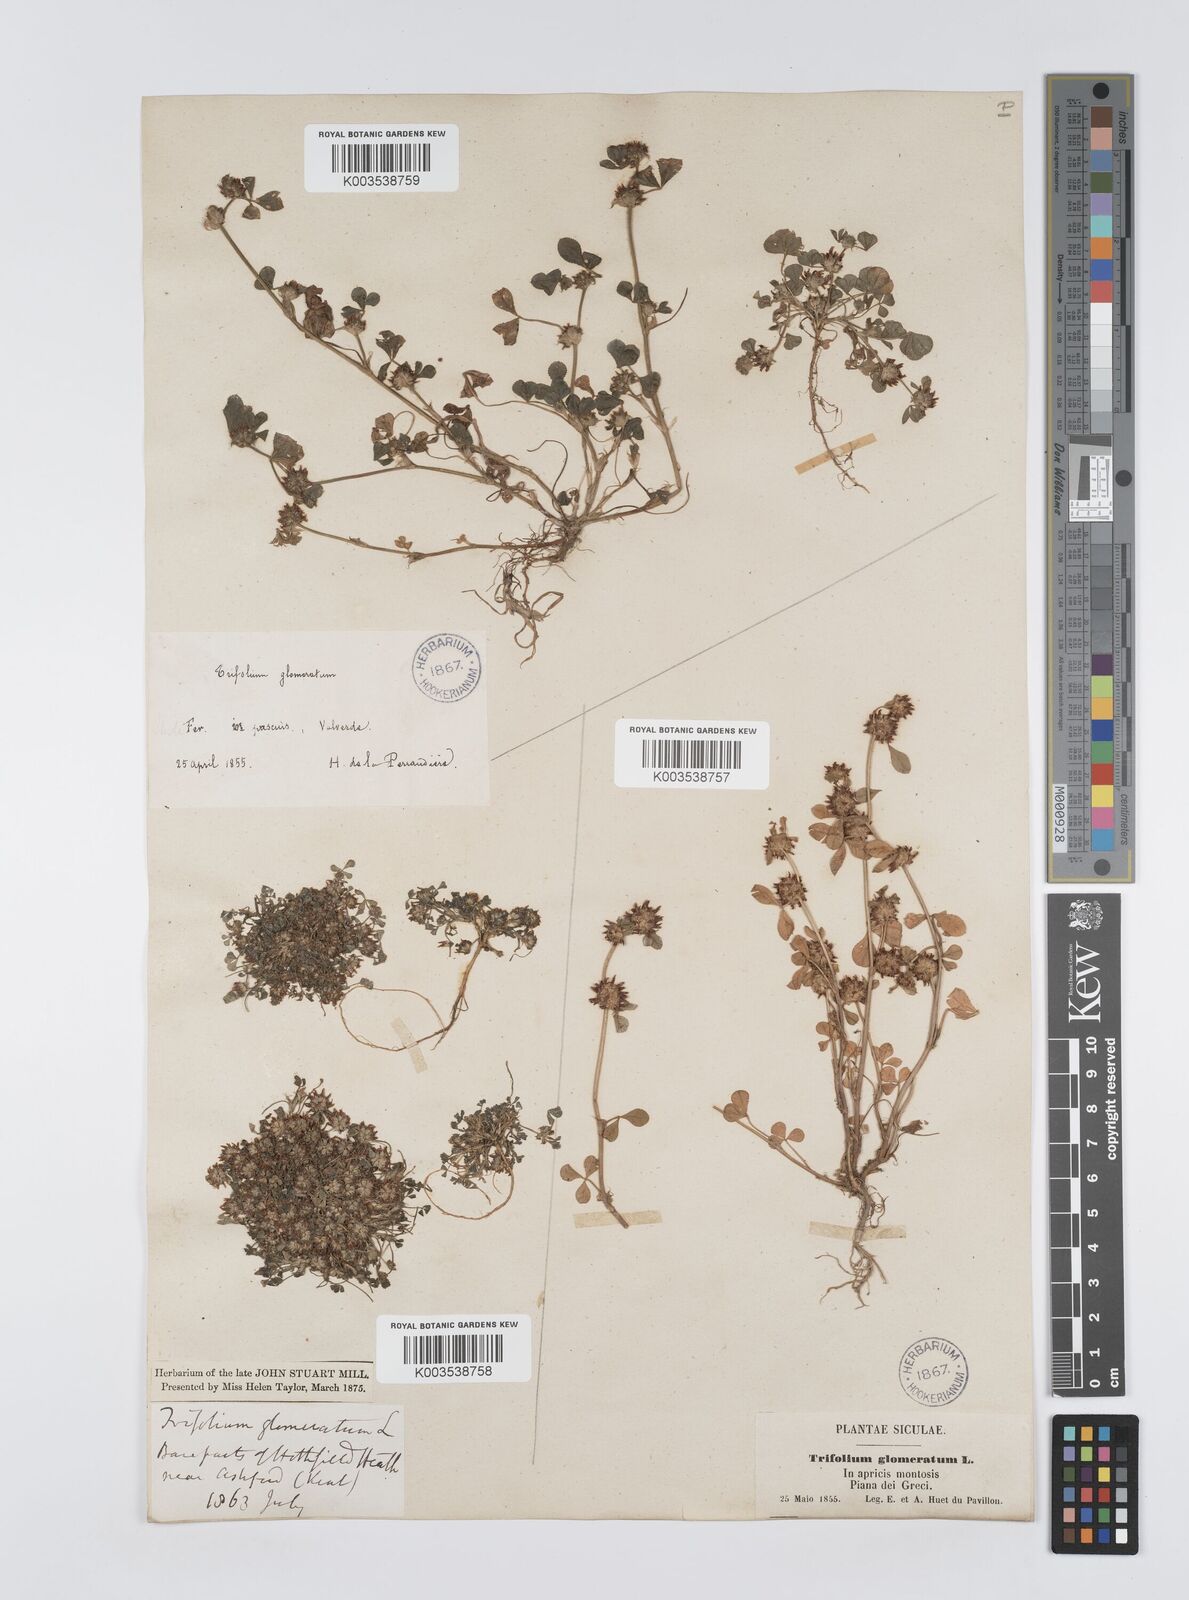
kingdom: Plantae
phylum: Tracheophyta
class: Magnoliopsida
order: Fabales
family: Fabaceae
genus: Trifolium
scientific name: Trifolium glomeratum
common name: Clustered clover
